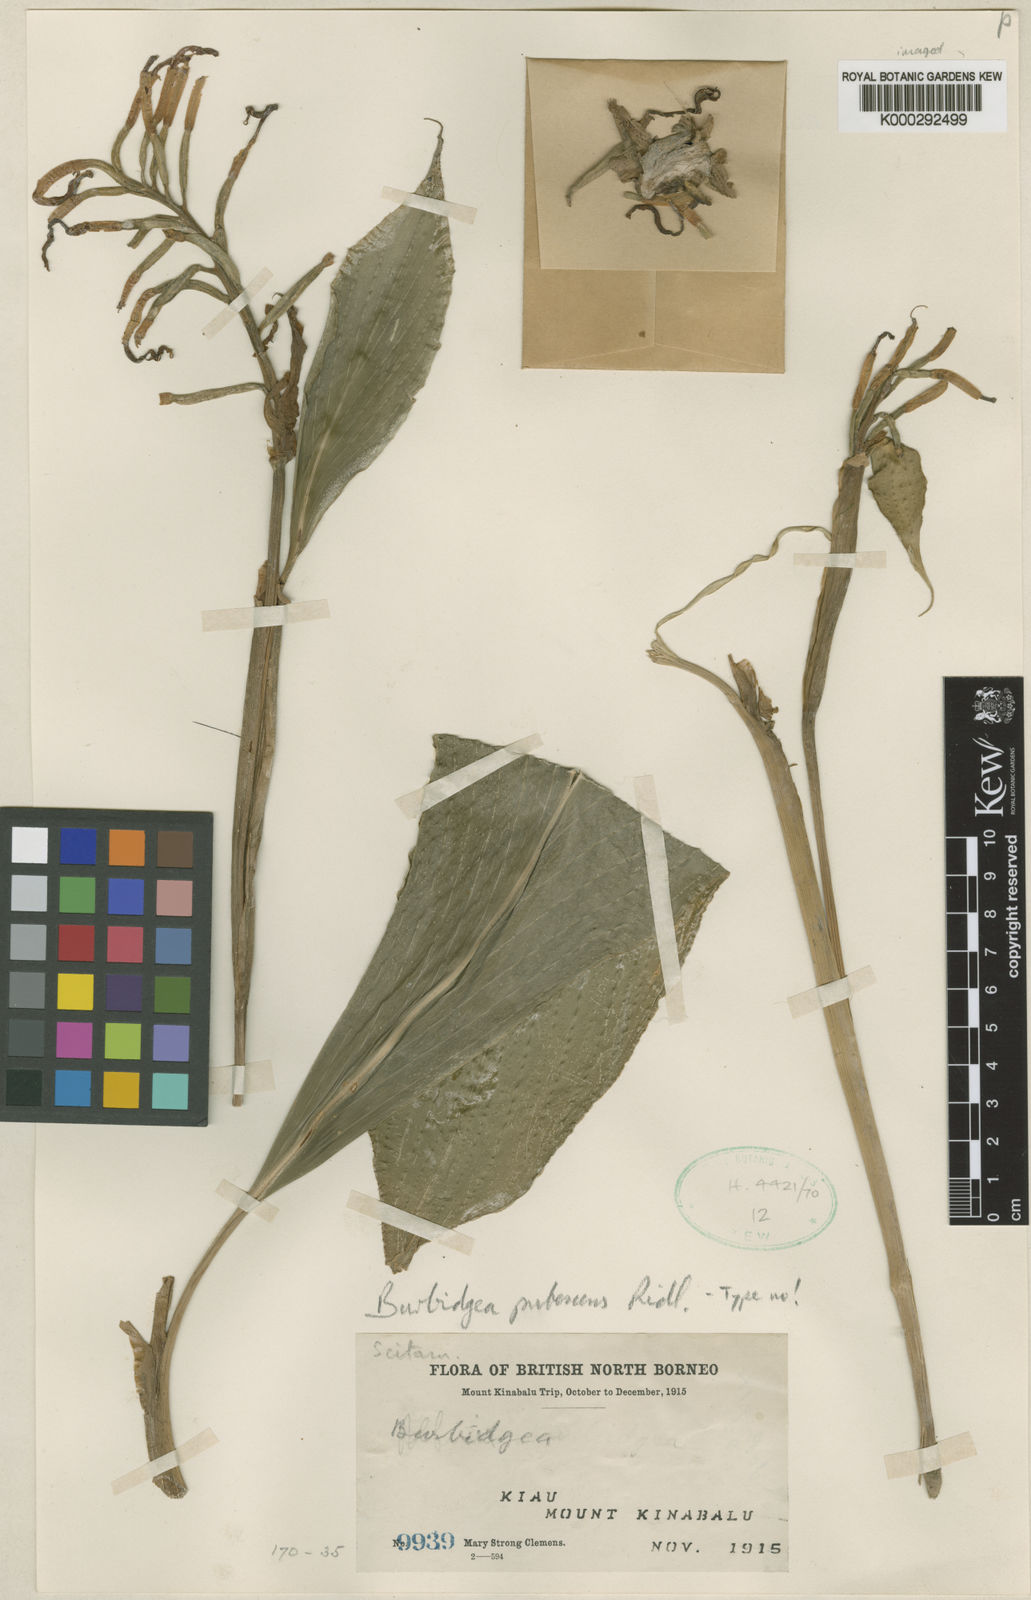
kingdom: Plantae
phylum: Tracheophyta
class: Liliopsida
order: Zingiberales
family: Zingiberaceae
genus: Burbidgea
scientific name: Burbidgea schizocheila
